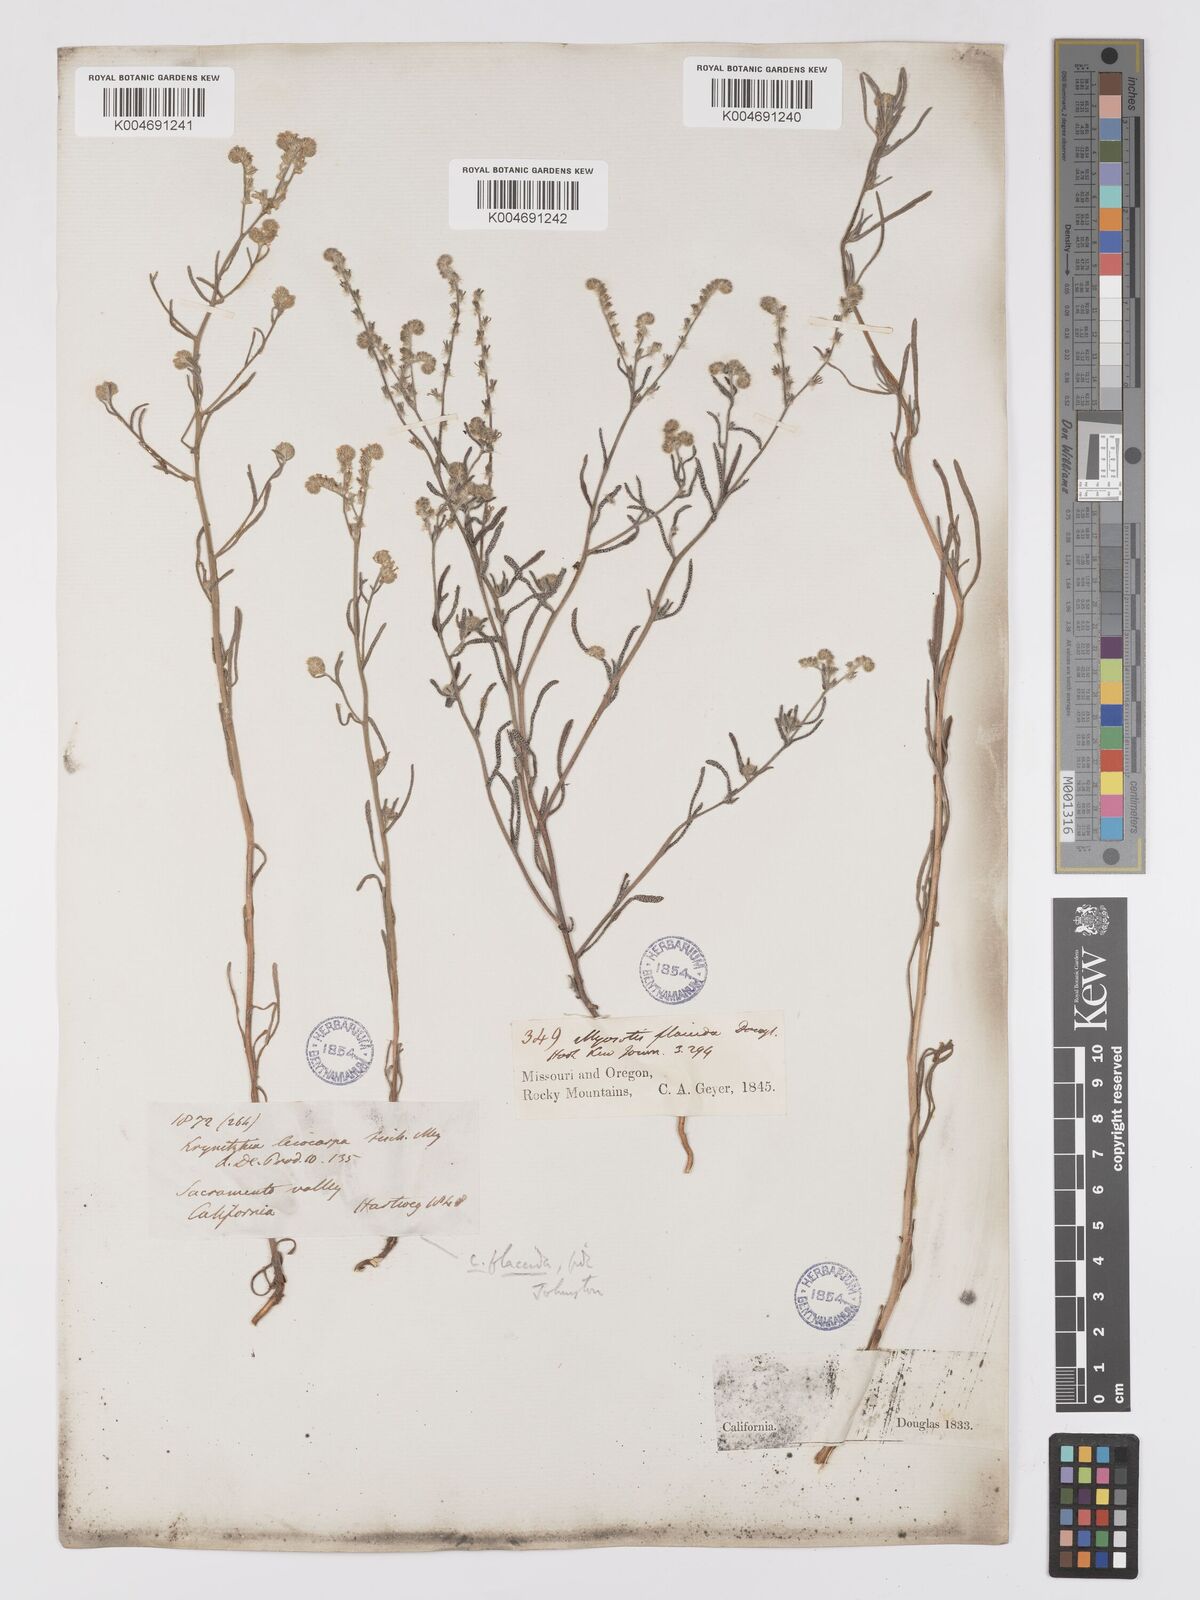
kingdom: Plantae
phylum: Tracheophyta
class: Magnoliopsida
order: Boraginales
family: Boraginaceae
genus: Cryptantha
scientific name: Cryptantha flaccida
